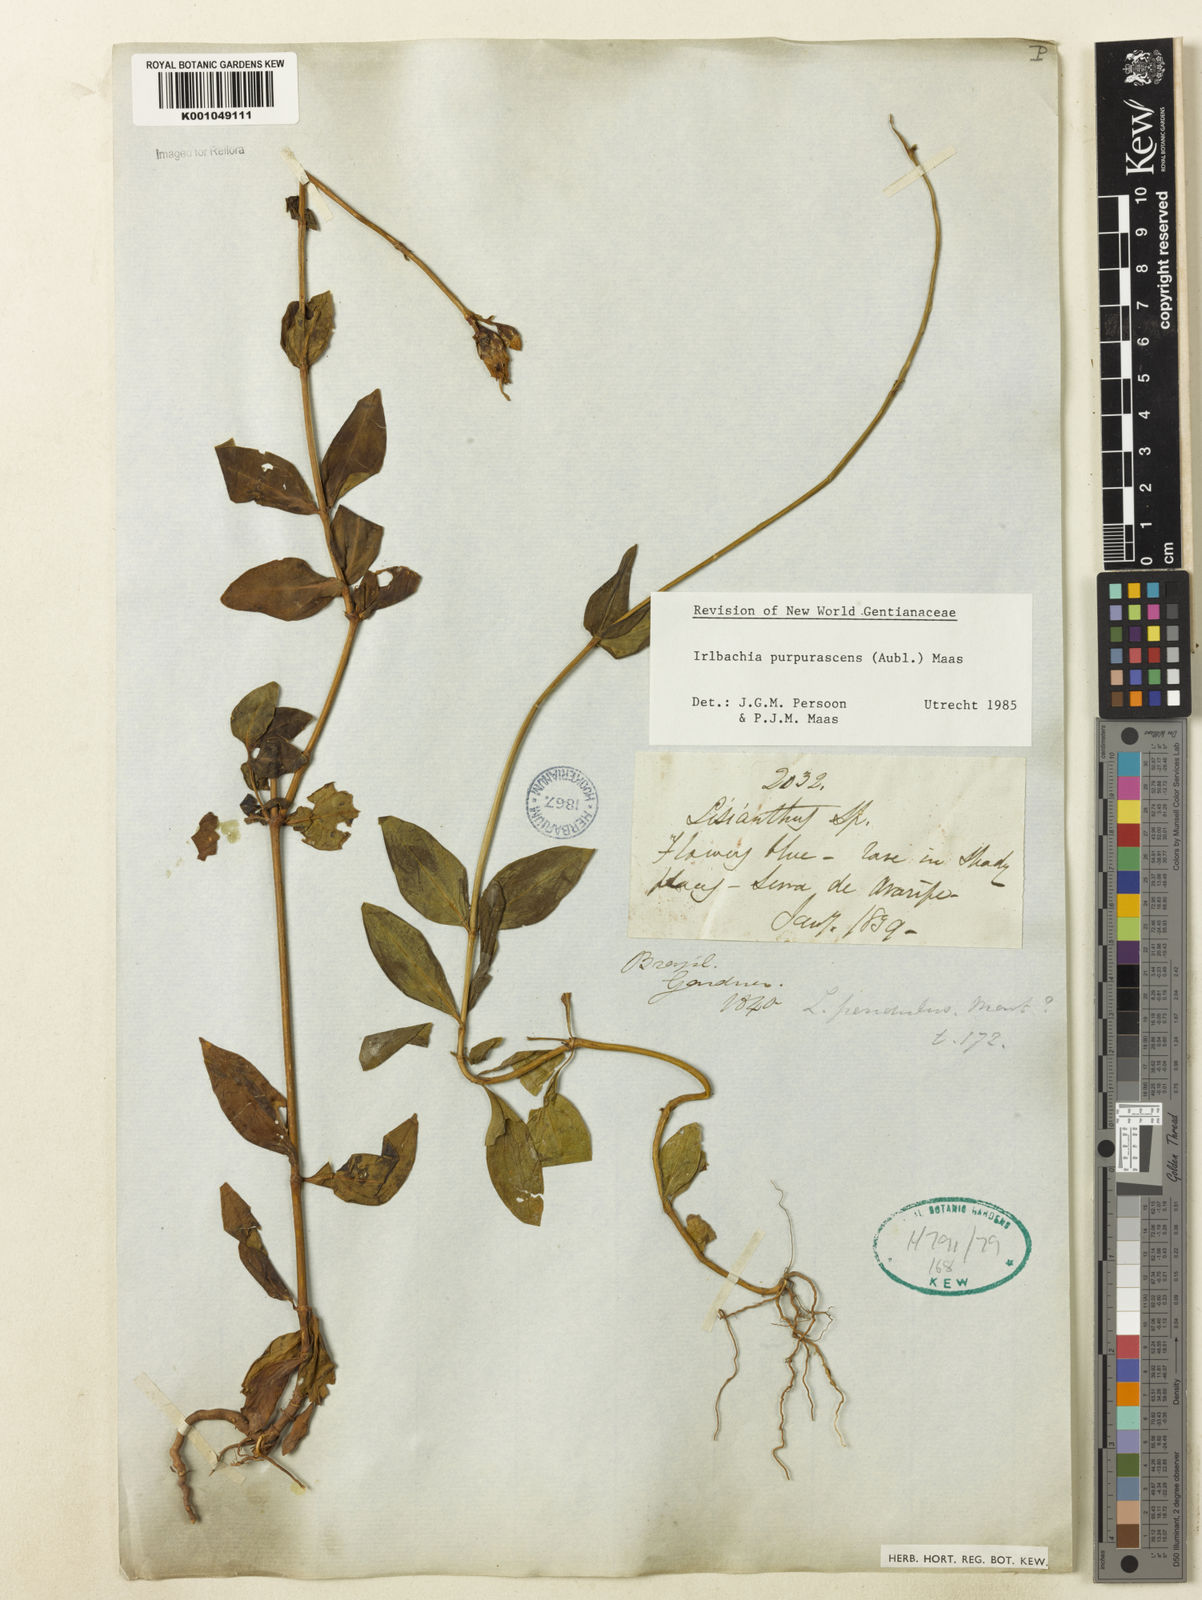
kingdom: Plantae
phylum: Tracheophyta
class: Magnoliopsida
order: Gentianales
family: Gentianaceae
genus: Chelonanthus
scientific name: Chelonanthus purpurascens
